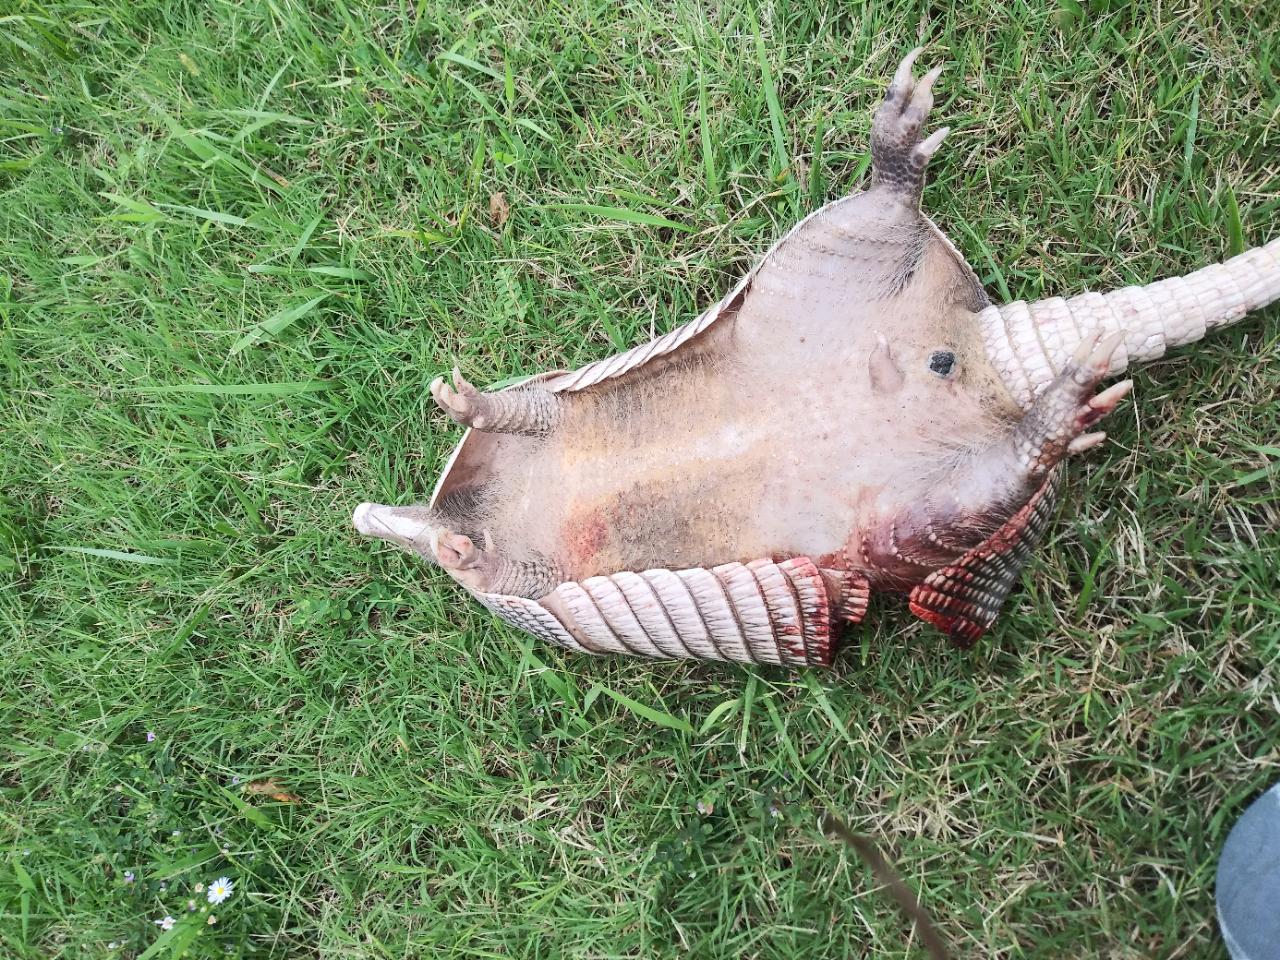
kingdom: Animalia
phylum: Chordata
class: Mammalia
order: Cingulata
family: Dasypodidae
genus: Dasypus
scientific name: Dasypus novemcinctus
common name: Nine-banded armadillo
